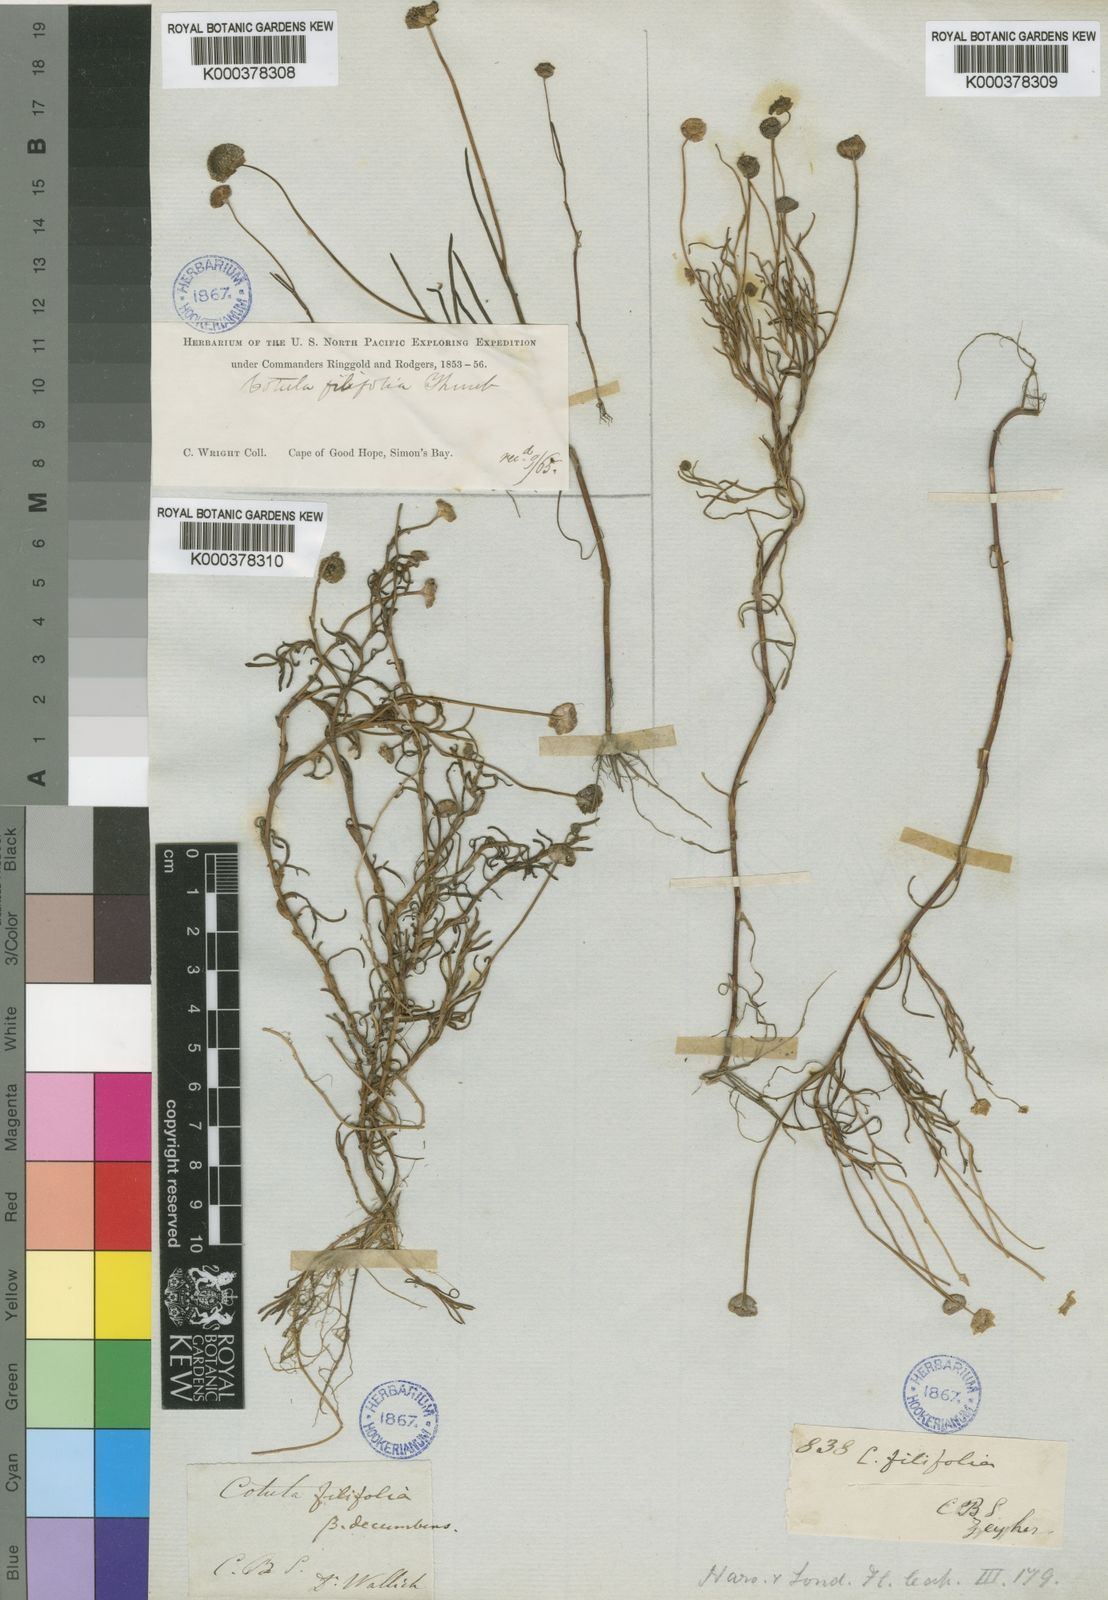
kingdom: Plantae
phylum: Tracheophyta
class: Magnoliopsida
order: Asterales
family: Asteraceae
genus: Cotula
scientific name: Cotula filifolia
